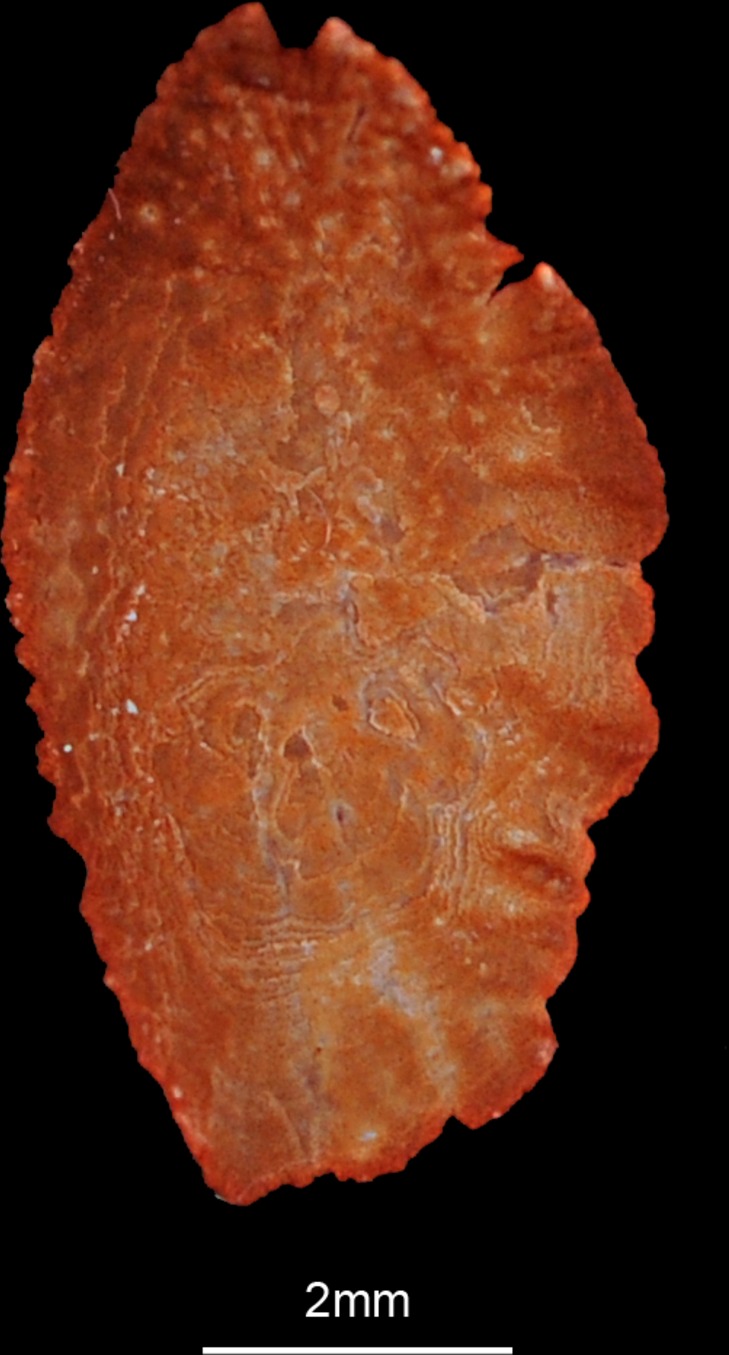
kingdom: Animalia
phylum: Chordata
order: Perciformes
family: Serranidae
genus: Cephalopholis
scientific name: Cephalopholis miniata
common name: Coral hind
